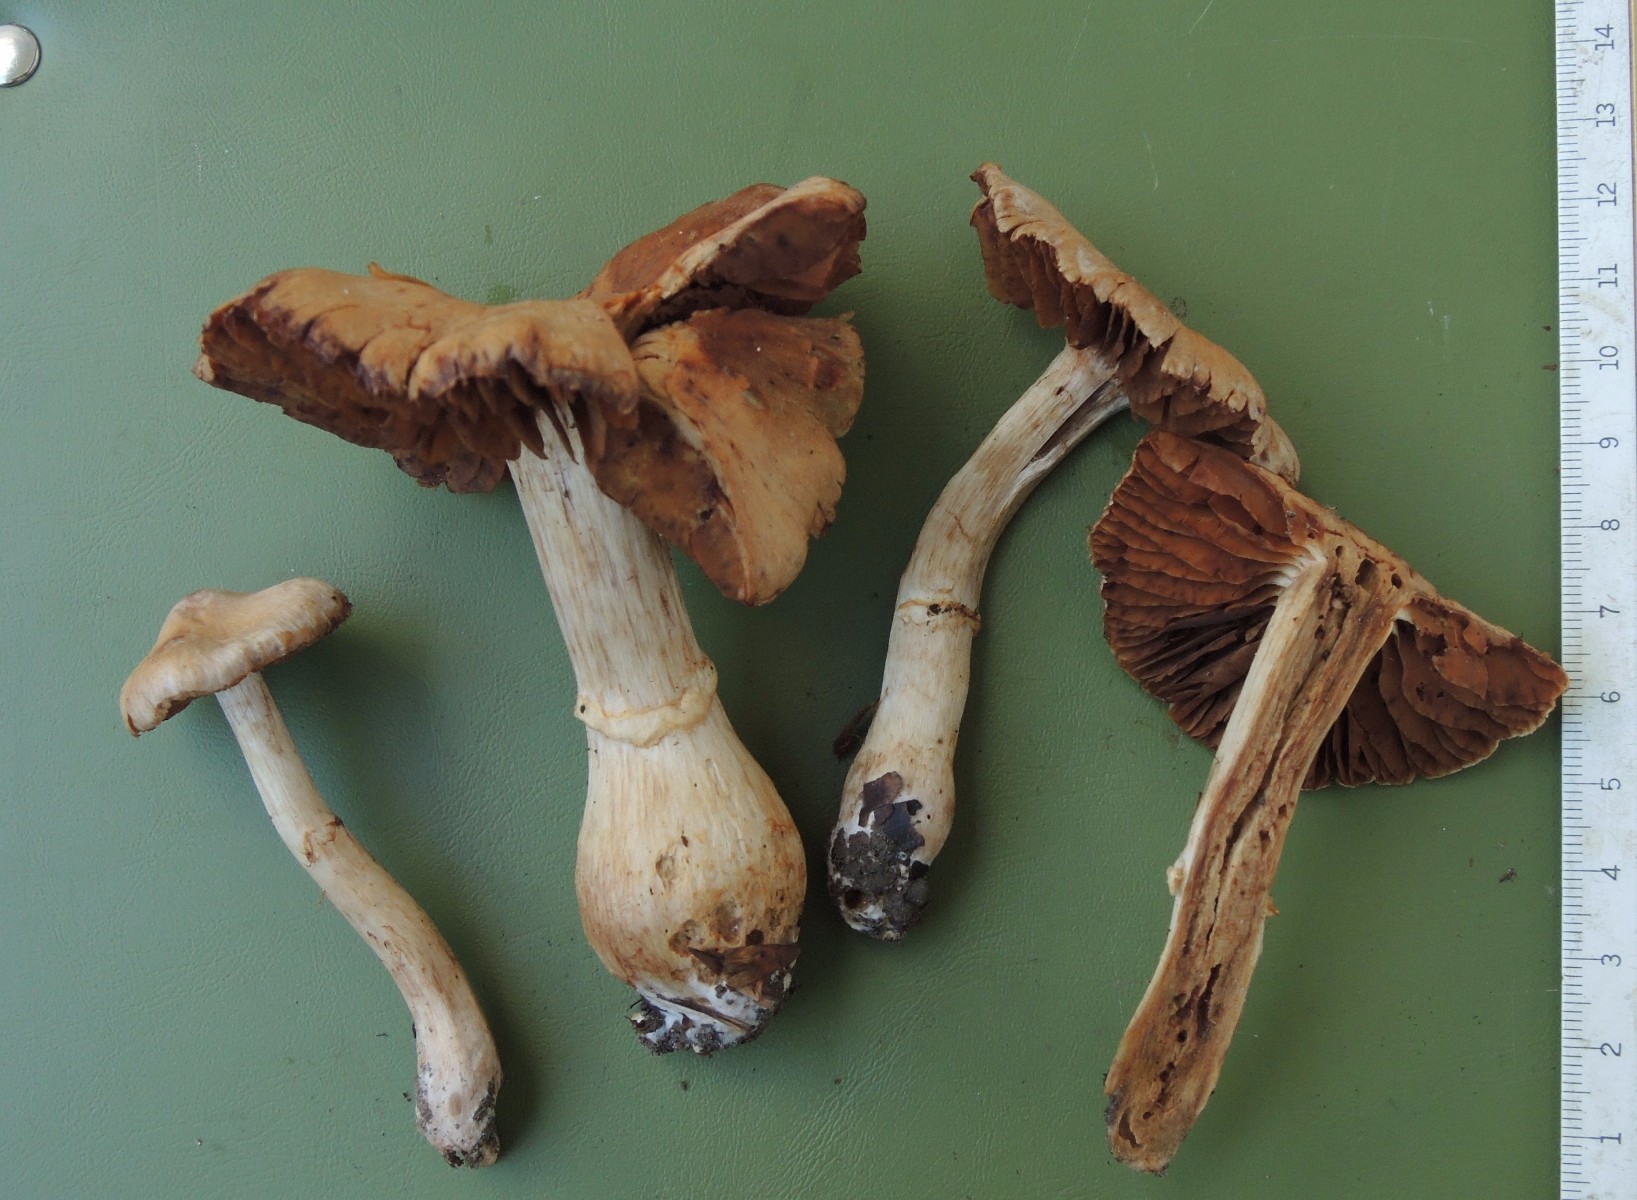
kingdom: Fungi
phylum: Basidiomycota
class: Agaricomycetes
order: Agaricales
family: Cortinariaceae
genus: Cortinarius
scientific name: Cortinarius hinnuleus
